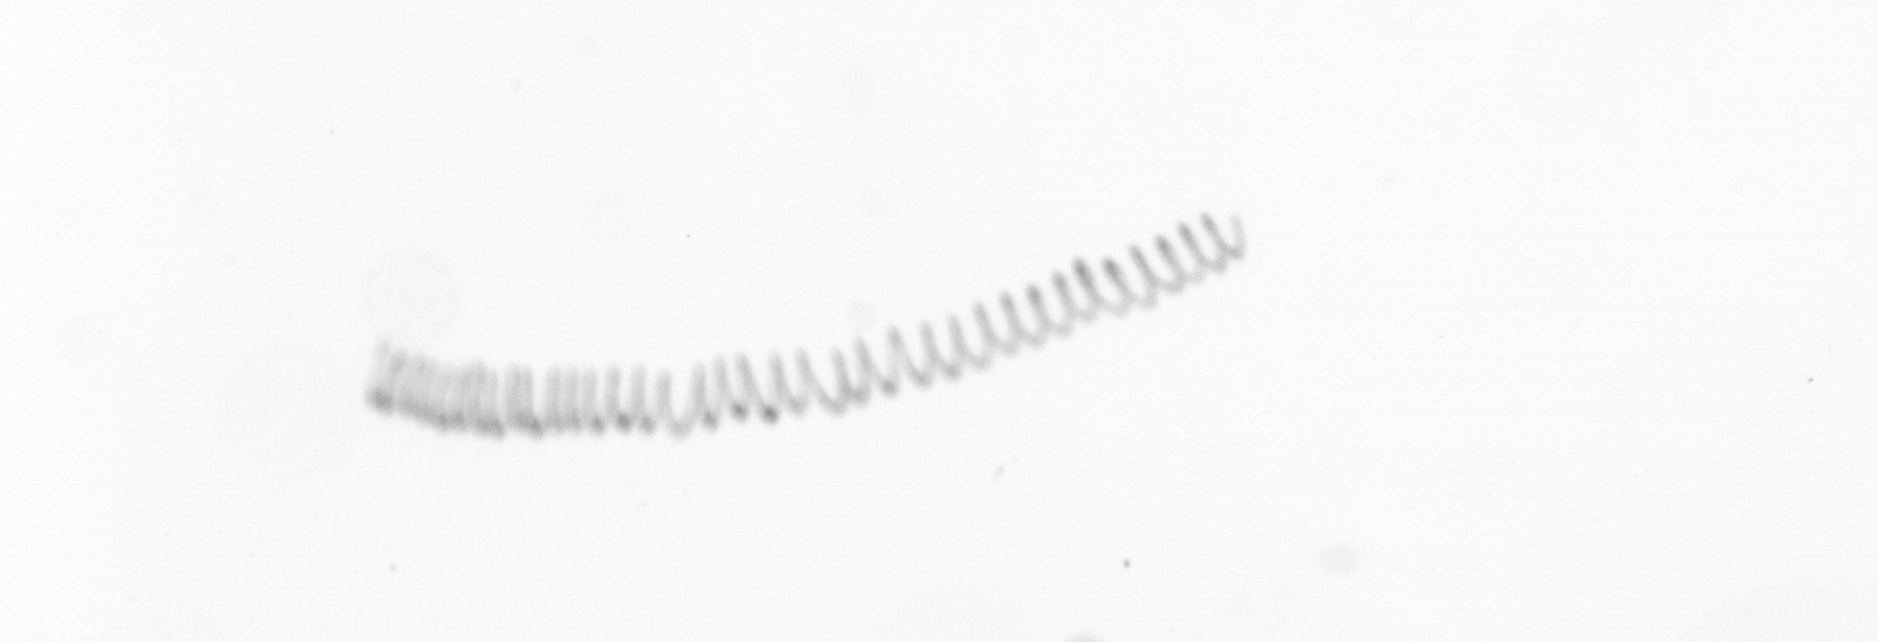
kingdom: Chromista
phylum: Ochrophyta
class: Bacillariophyceae
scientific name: Bacillariophyceae
